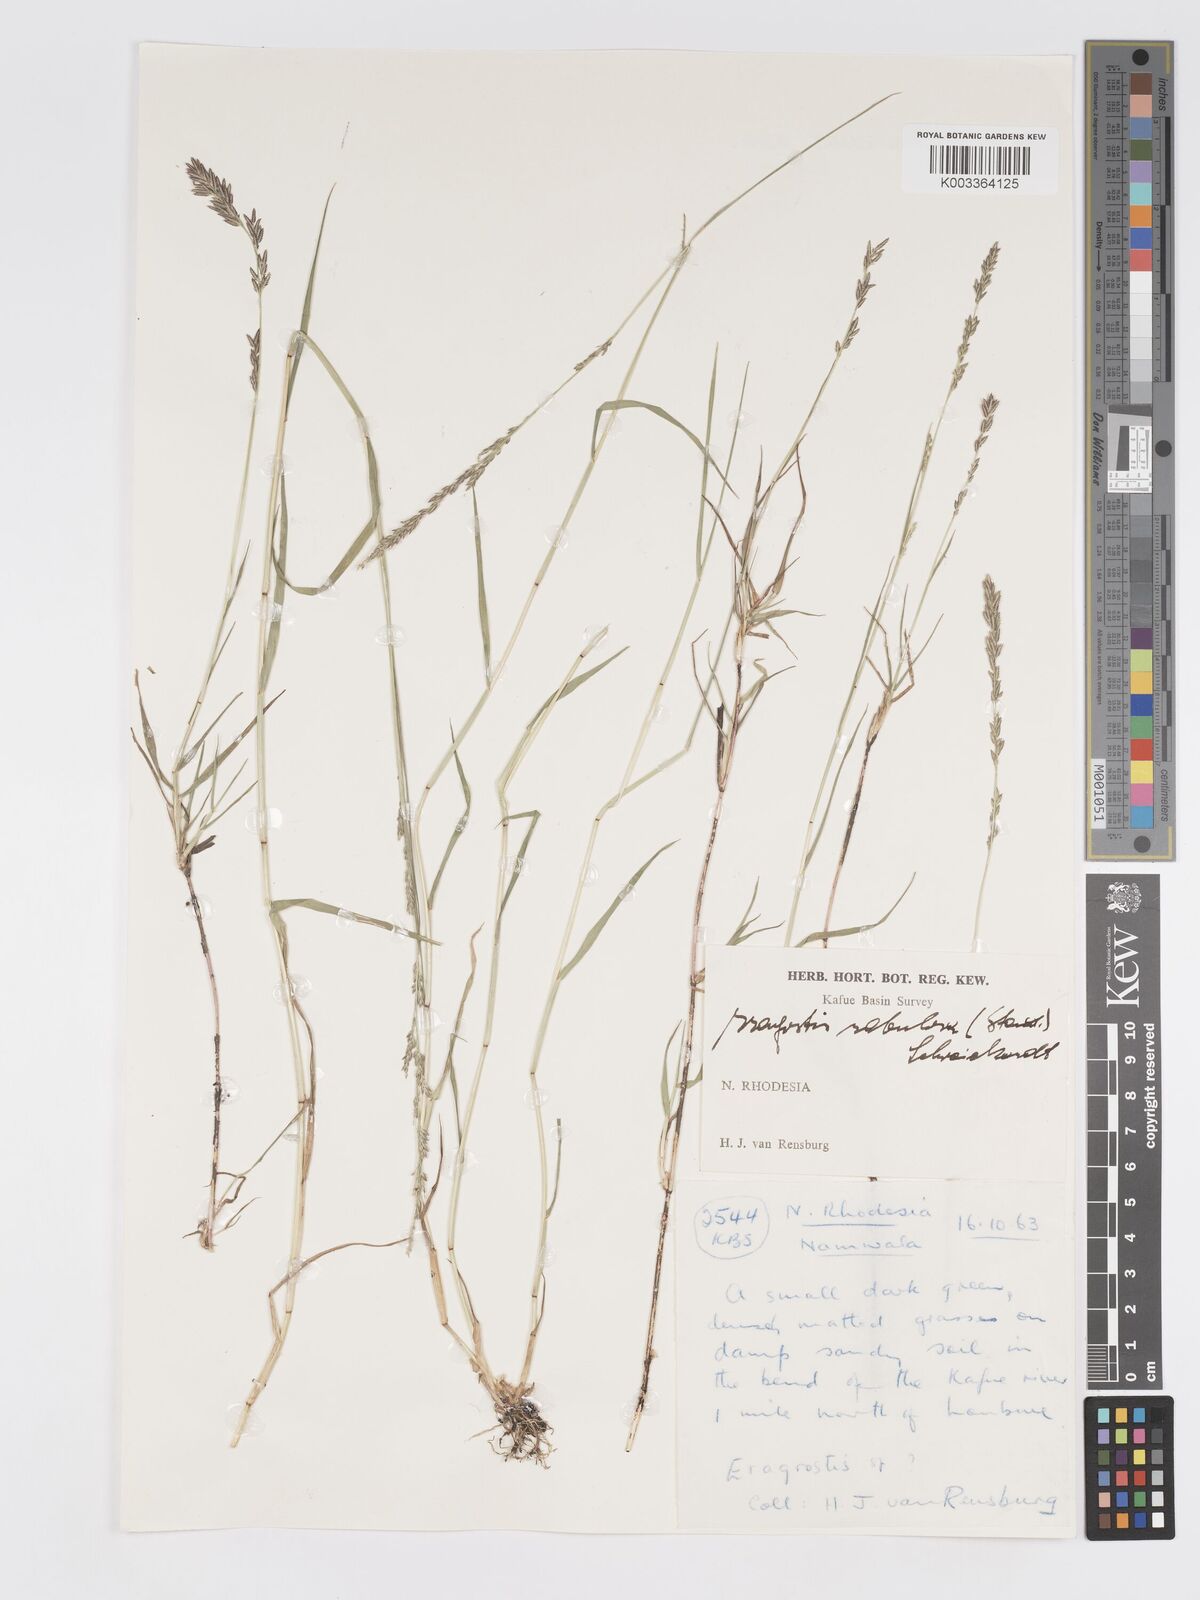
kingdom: Plantae
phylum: Tracheophyta
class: Liliopsida
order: Poales
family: Poaceae
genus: Eragrostis
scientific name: Eragrostis sarmentosa
